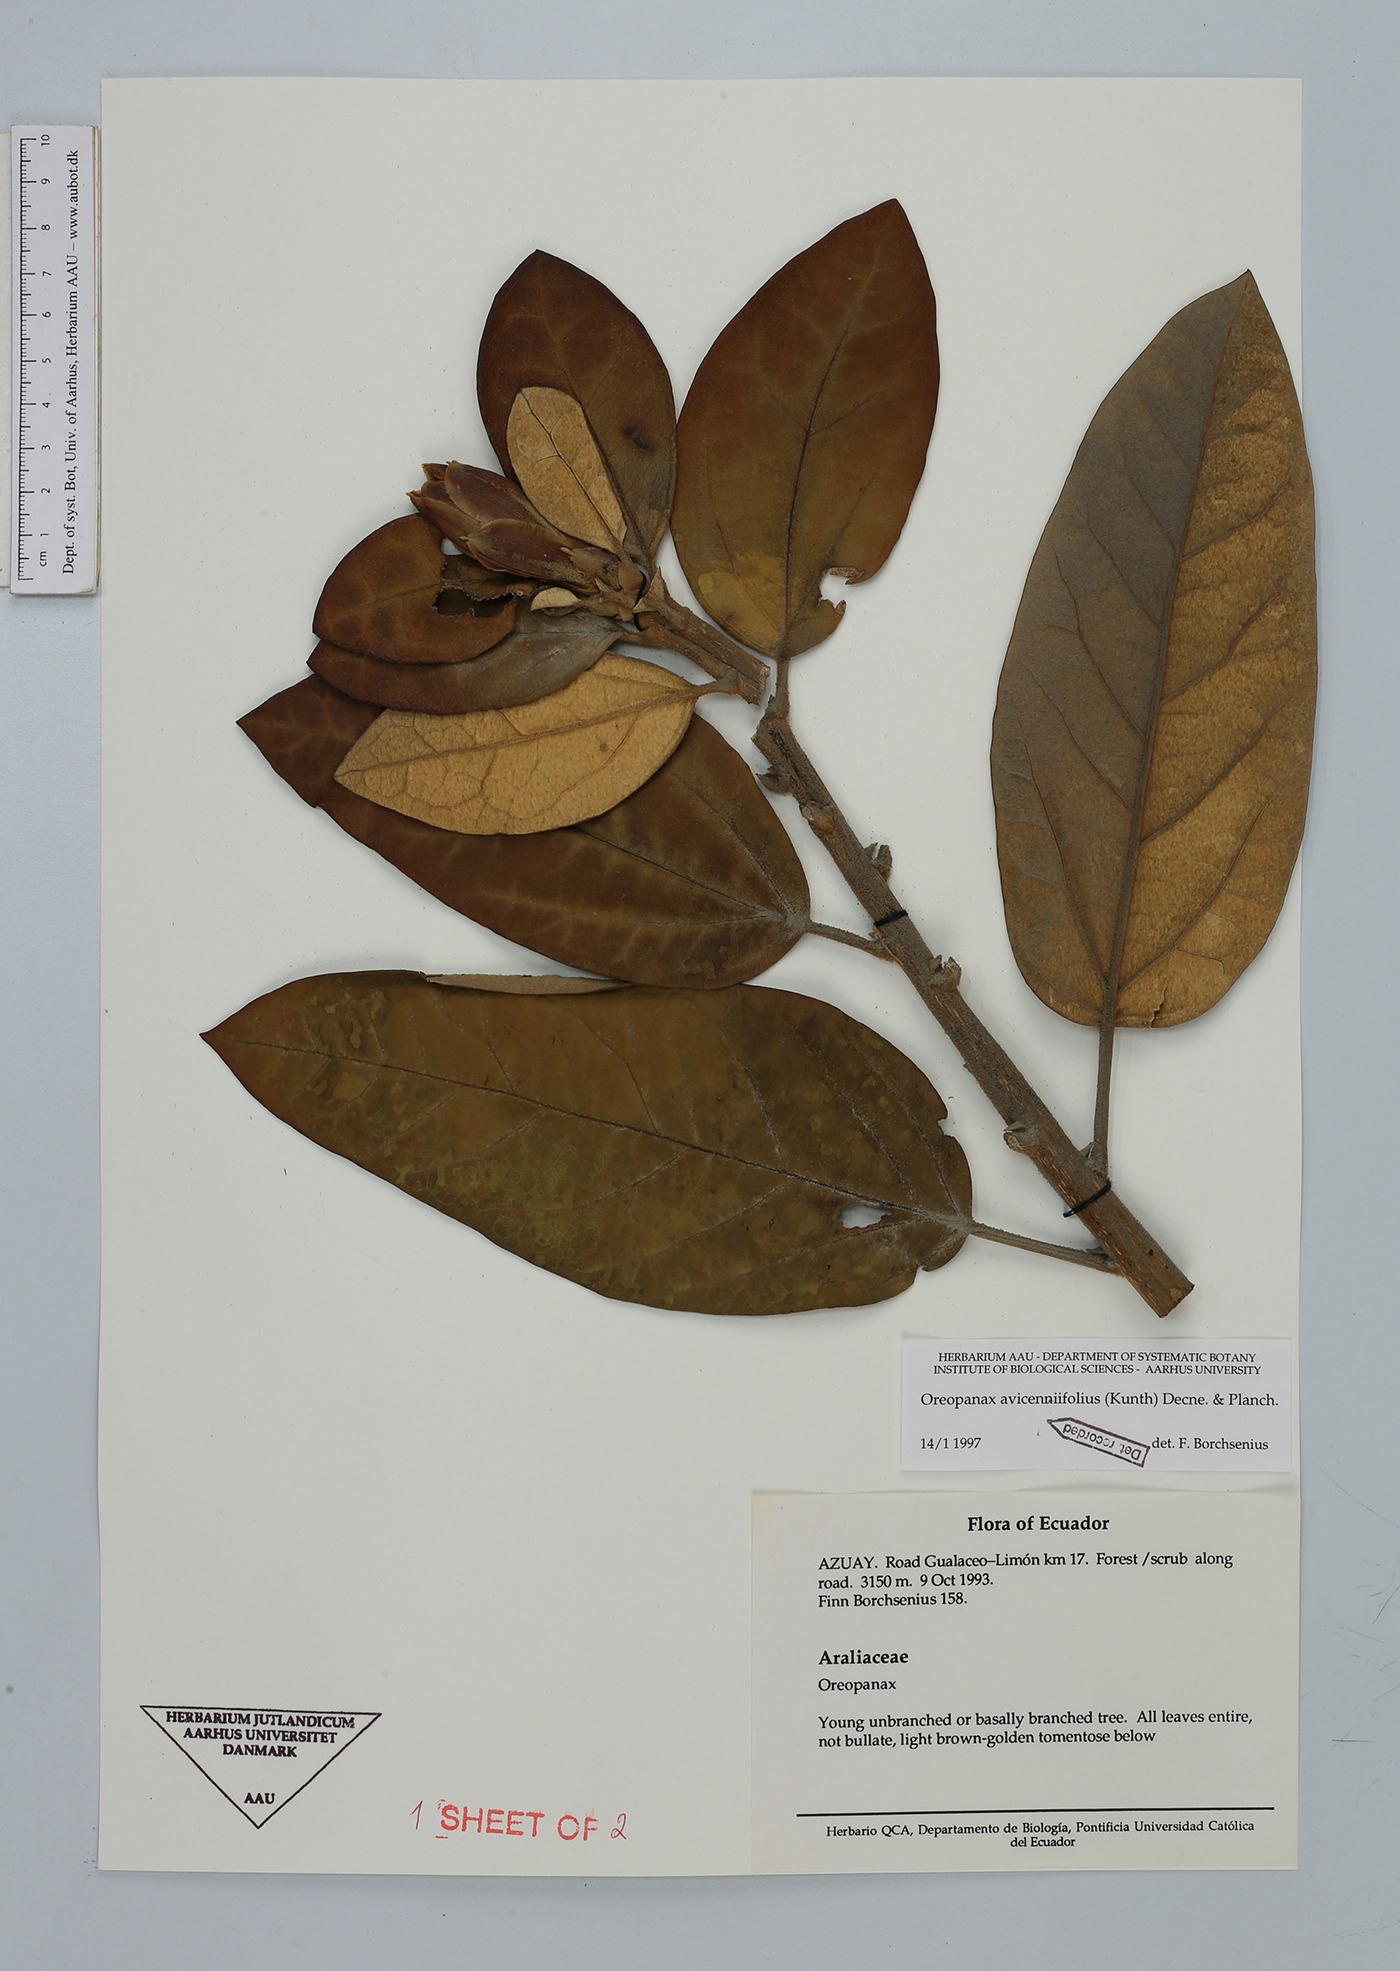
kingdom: Plantae
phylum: Tracheophyta
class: Magnoliopsida
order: Apiales
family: Araliaceae
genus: Oreopanax
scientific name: Oreopanax avicenniifolius
